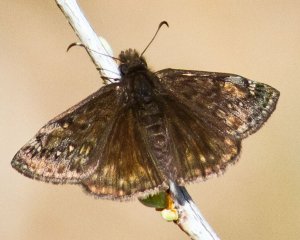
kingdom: Animalia
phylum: Arthropoda
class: Insecta
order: Lepidoptera
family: Hesperiidae
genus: Gesta
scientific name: Gesta
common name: Juvenal's Duskywing
